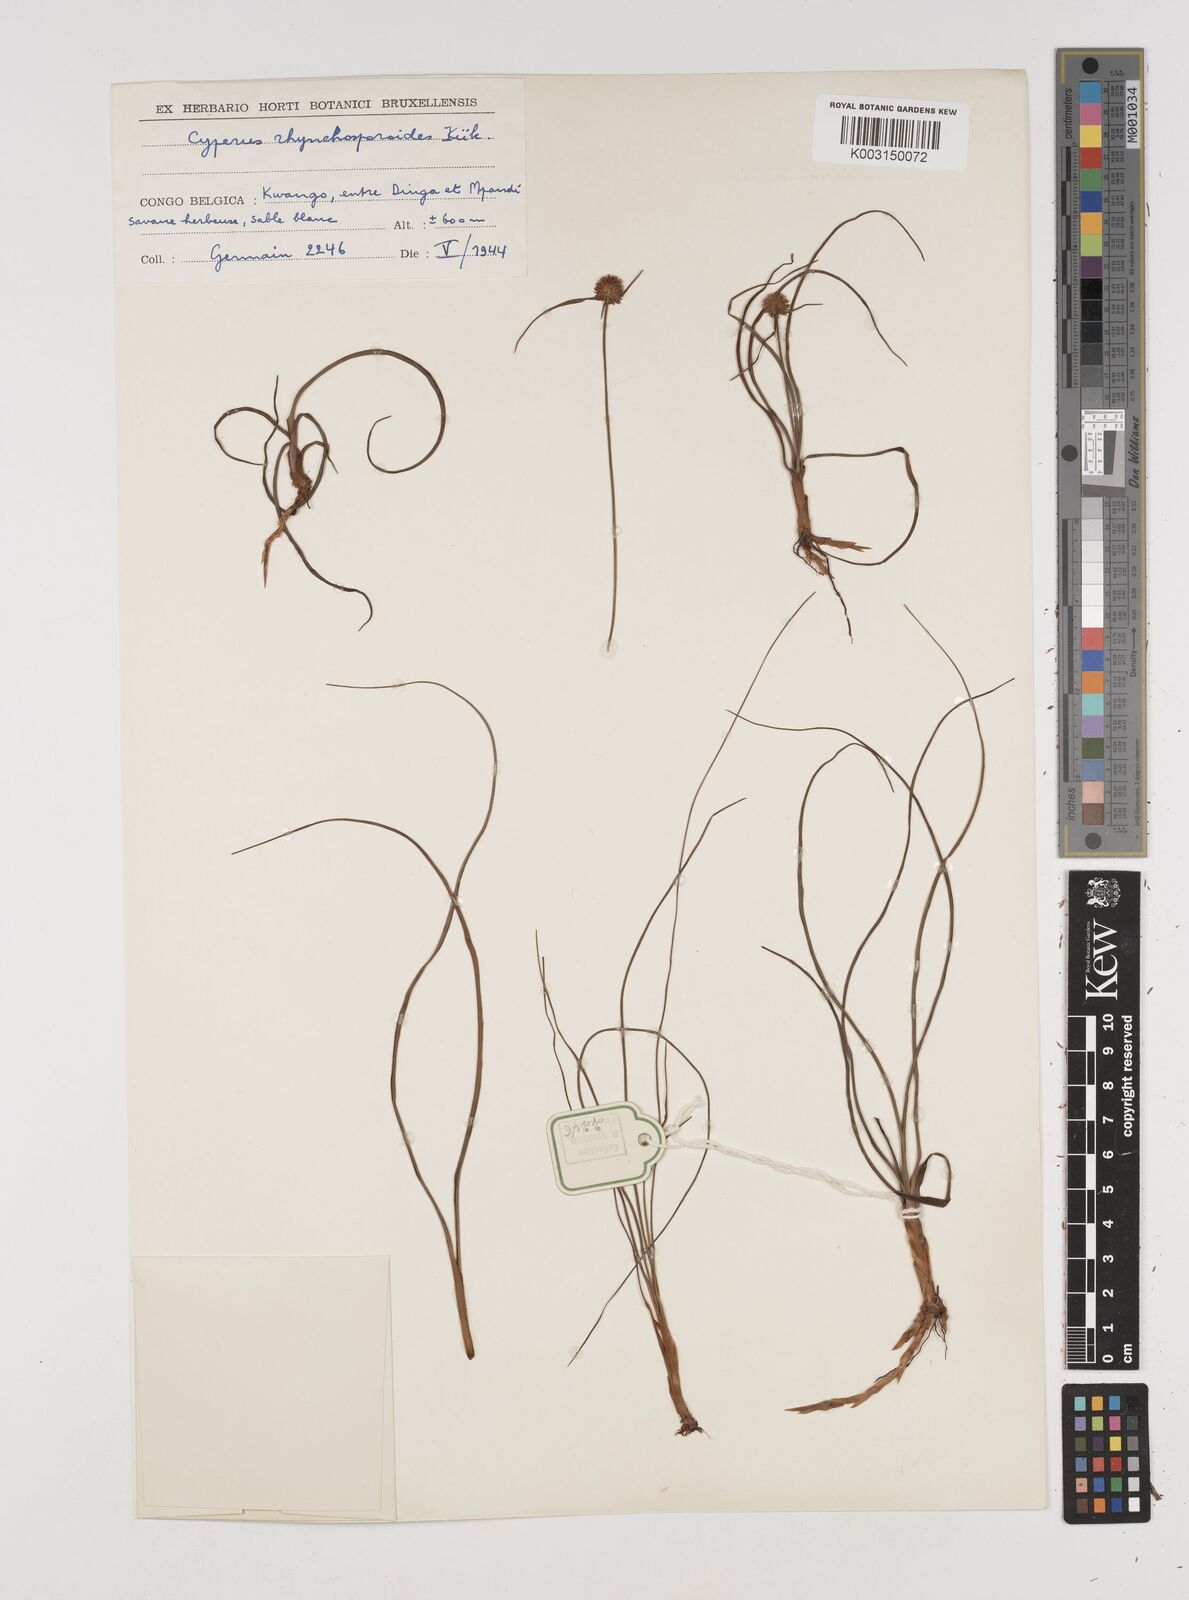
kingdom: Plantae
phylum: Tracheophyta
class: Liliopsida
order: Poales
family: Cyperaceae
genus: Cyperus
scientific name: Cyperus rhynchosporoides
